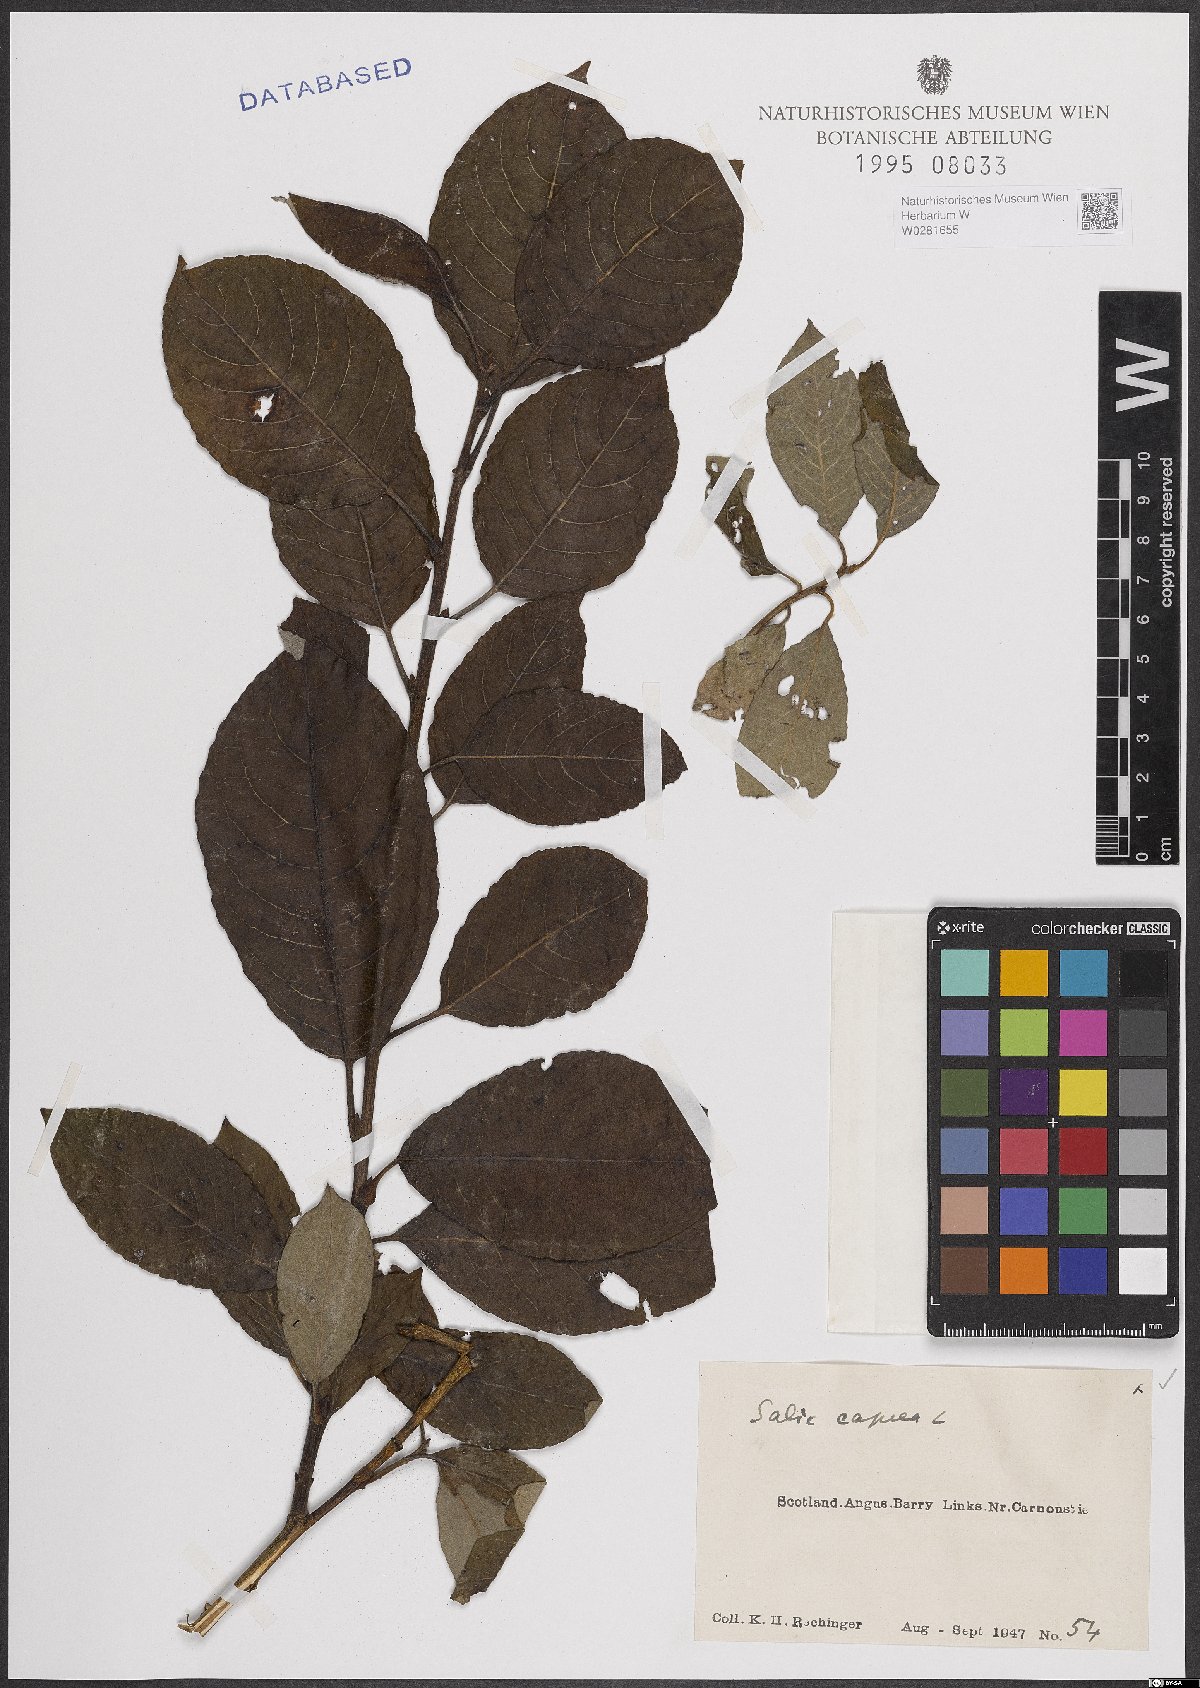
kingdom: Plantae
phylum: Tracheophyta
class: Magnoliopsida
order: Malpighiales
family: Salicaceae
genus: Salix
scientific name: Salix caprea
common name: Goat willow
